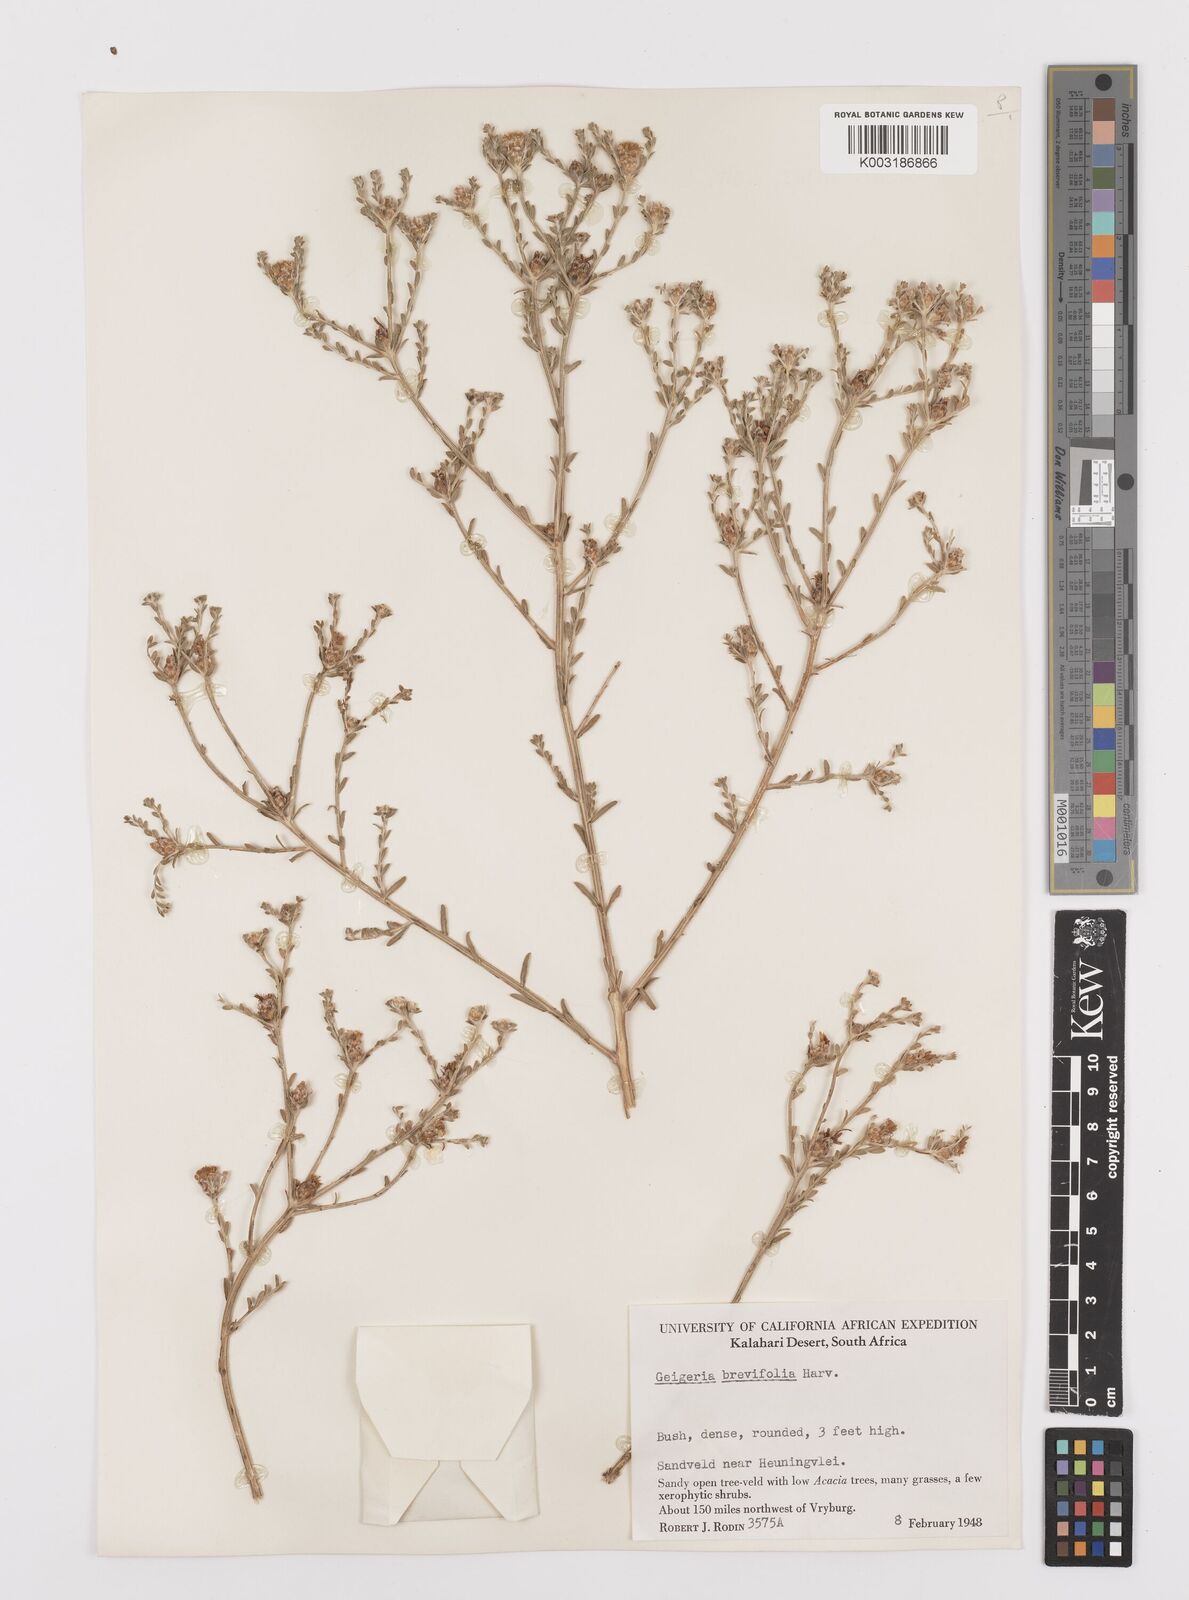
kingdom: Plantae
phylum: Tracheophyta
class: Magnoliopsida
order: Asterales
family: Asteraceae
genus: Geigeria
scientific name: Geigeria brevifolia
